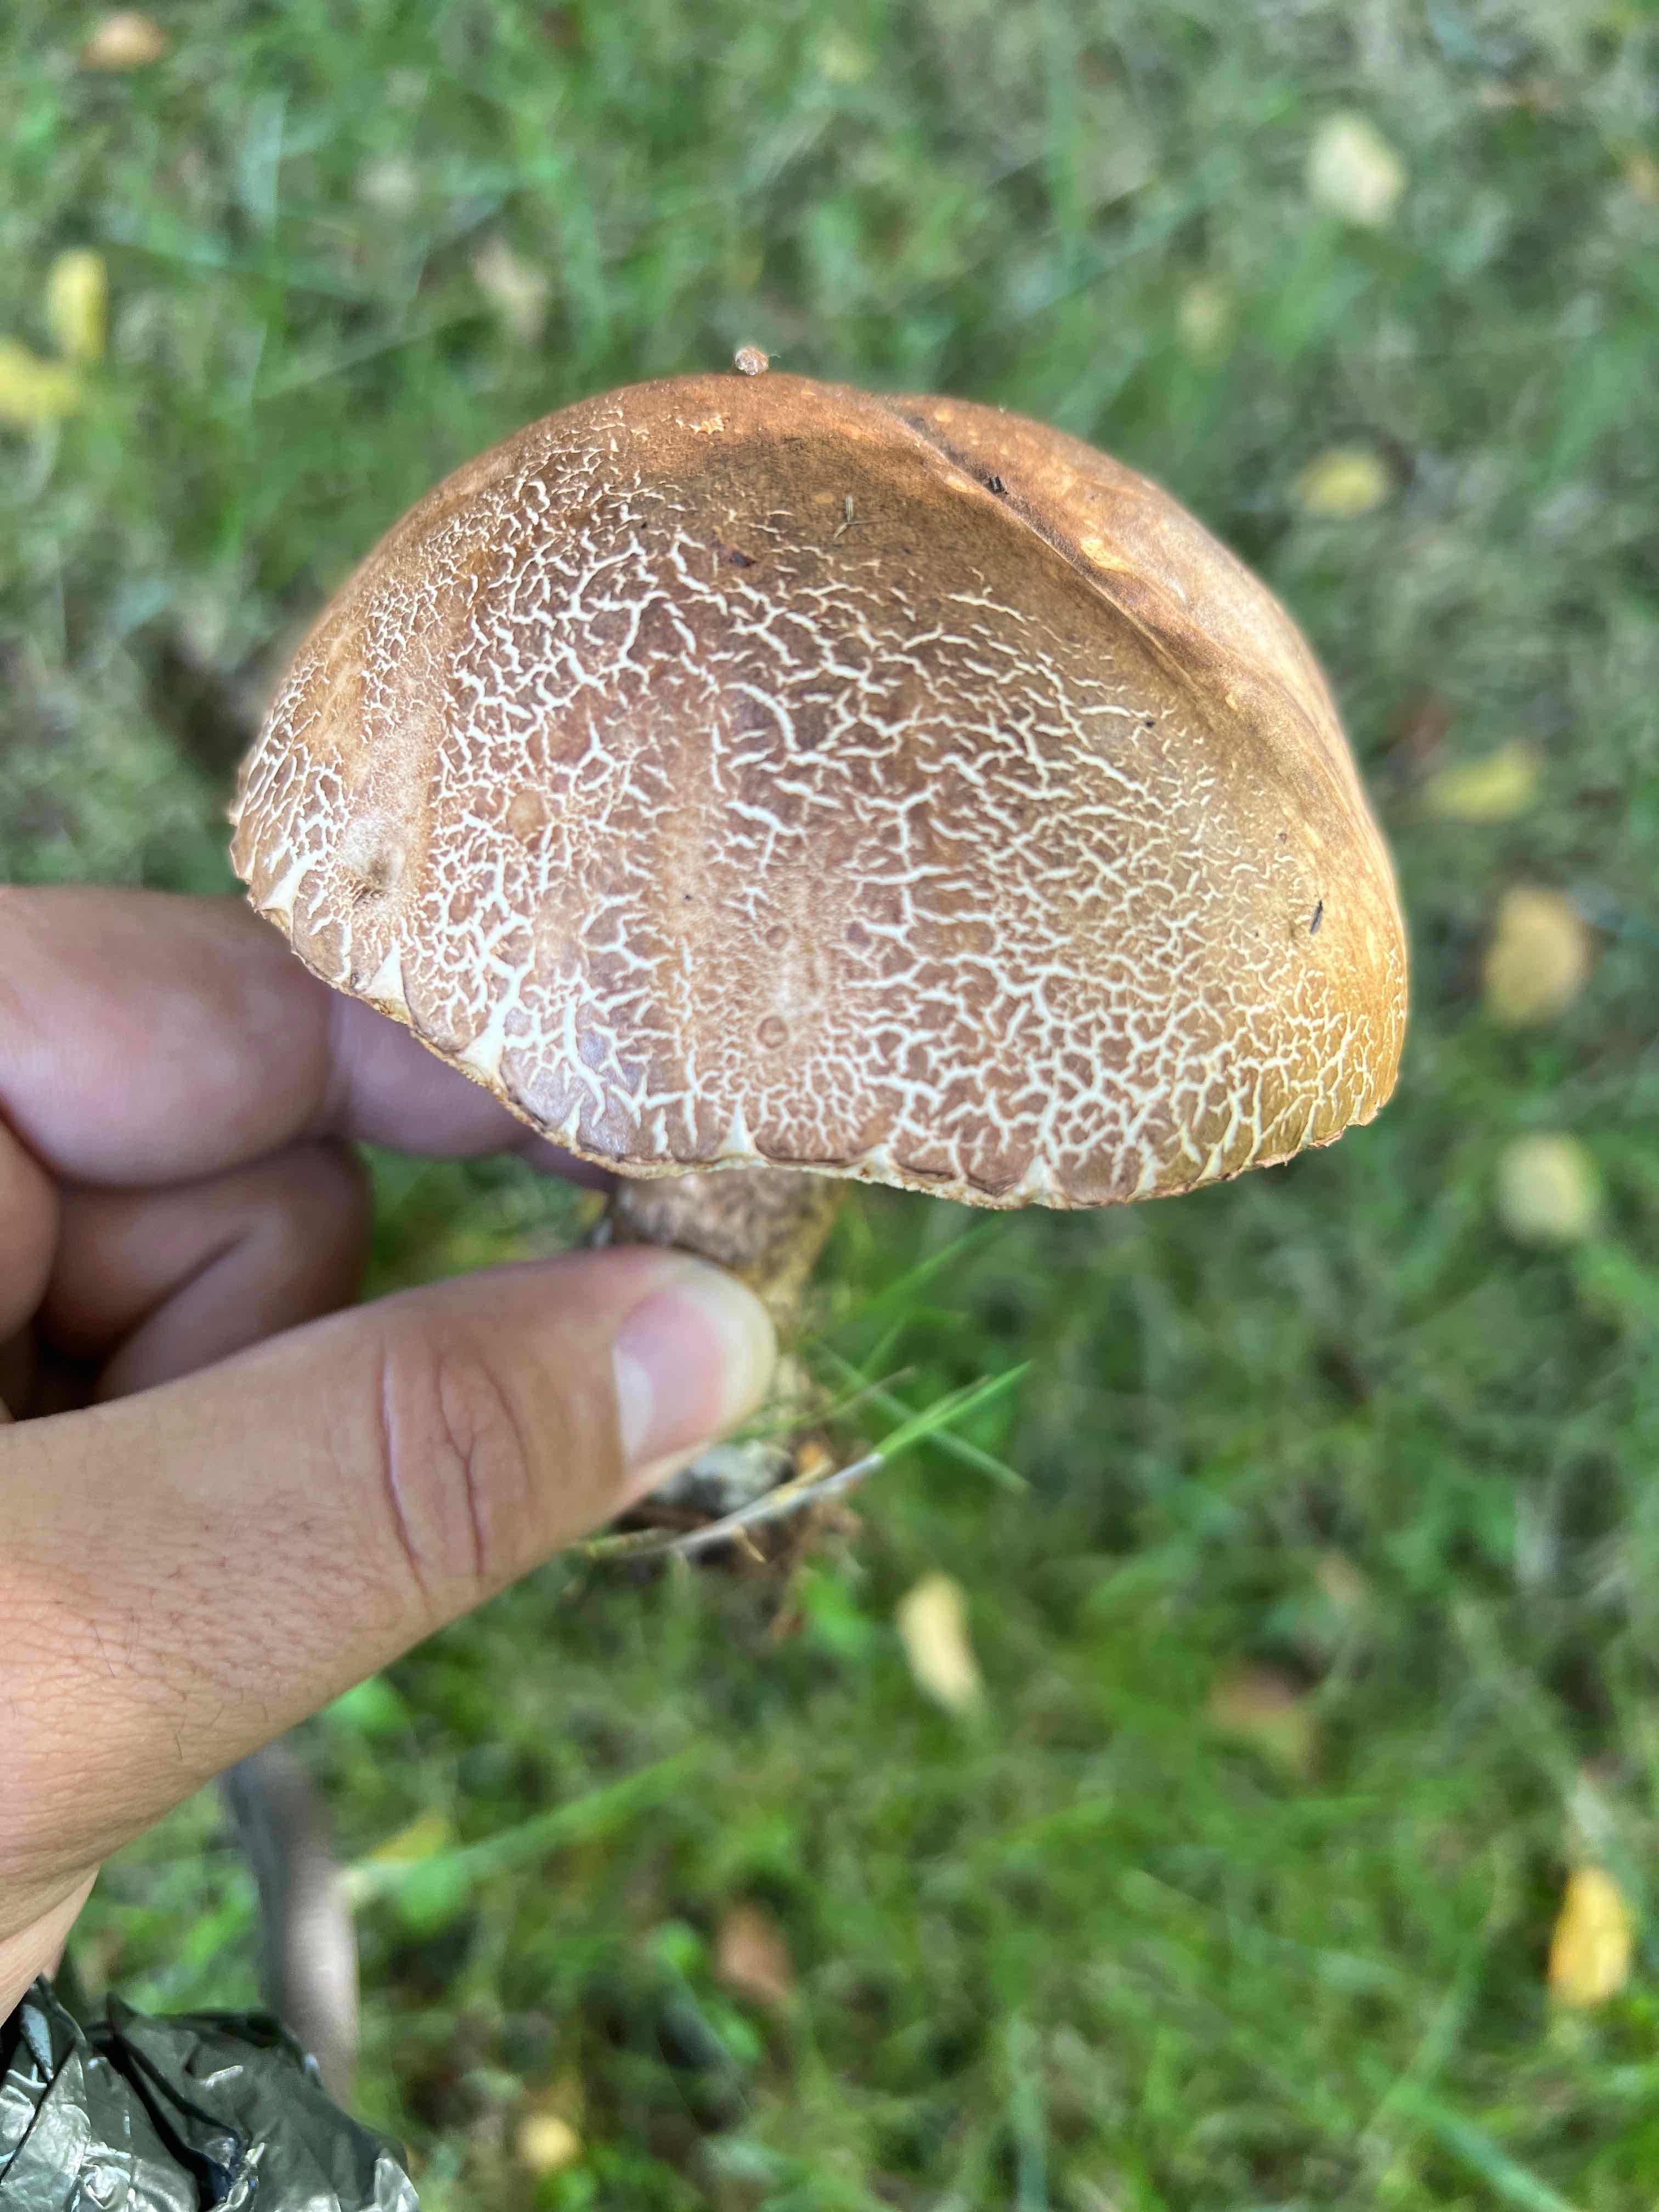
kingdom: Fungi
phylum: Basidiomycota
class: Agaricomycetes
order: Boletales
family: Boletaceae
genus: Leccinum
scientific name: Leccinum
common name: skælrørhat
